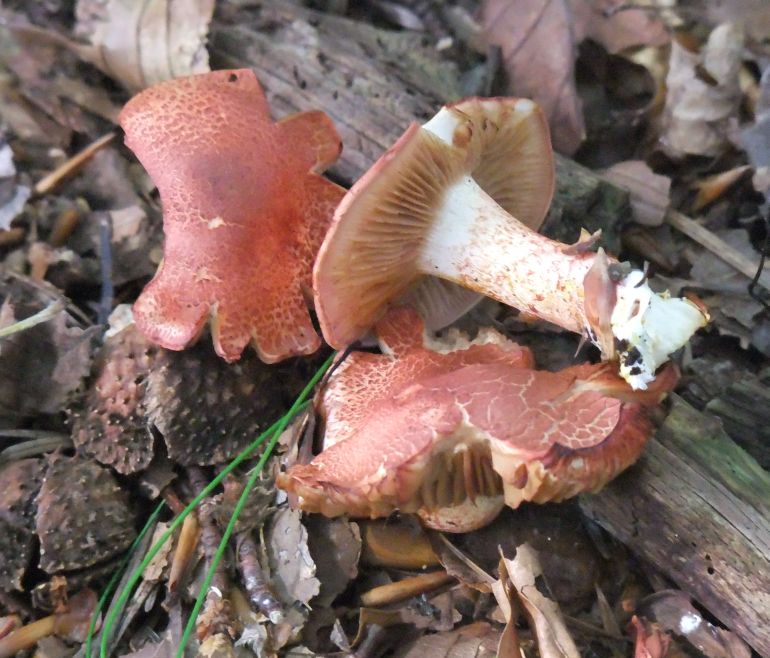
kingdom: Fungi
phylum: Basidiomycota
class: Agaricomycetes
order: Agaricales
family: Cortinariaceae
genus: Cortinarius
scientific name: Cortinarius bolaris
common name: cinnoberskællet slørhat
